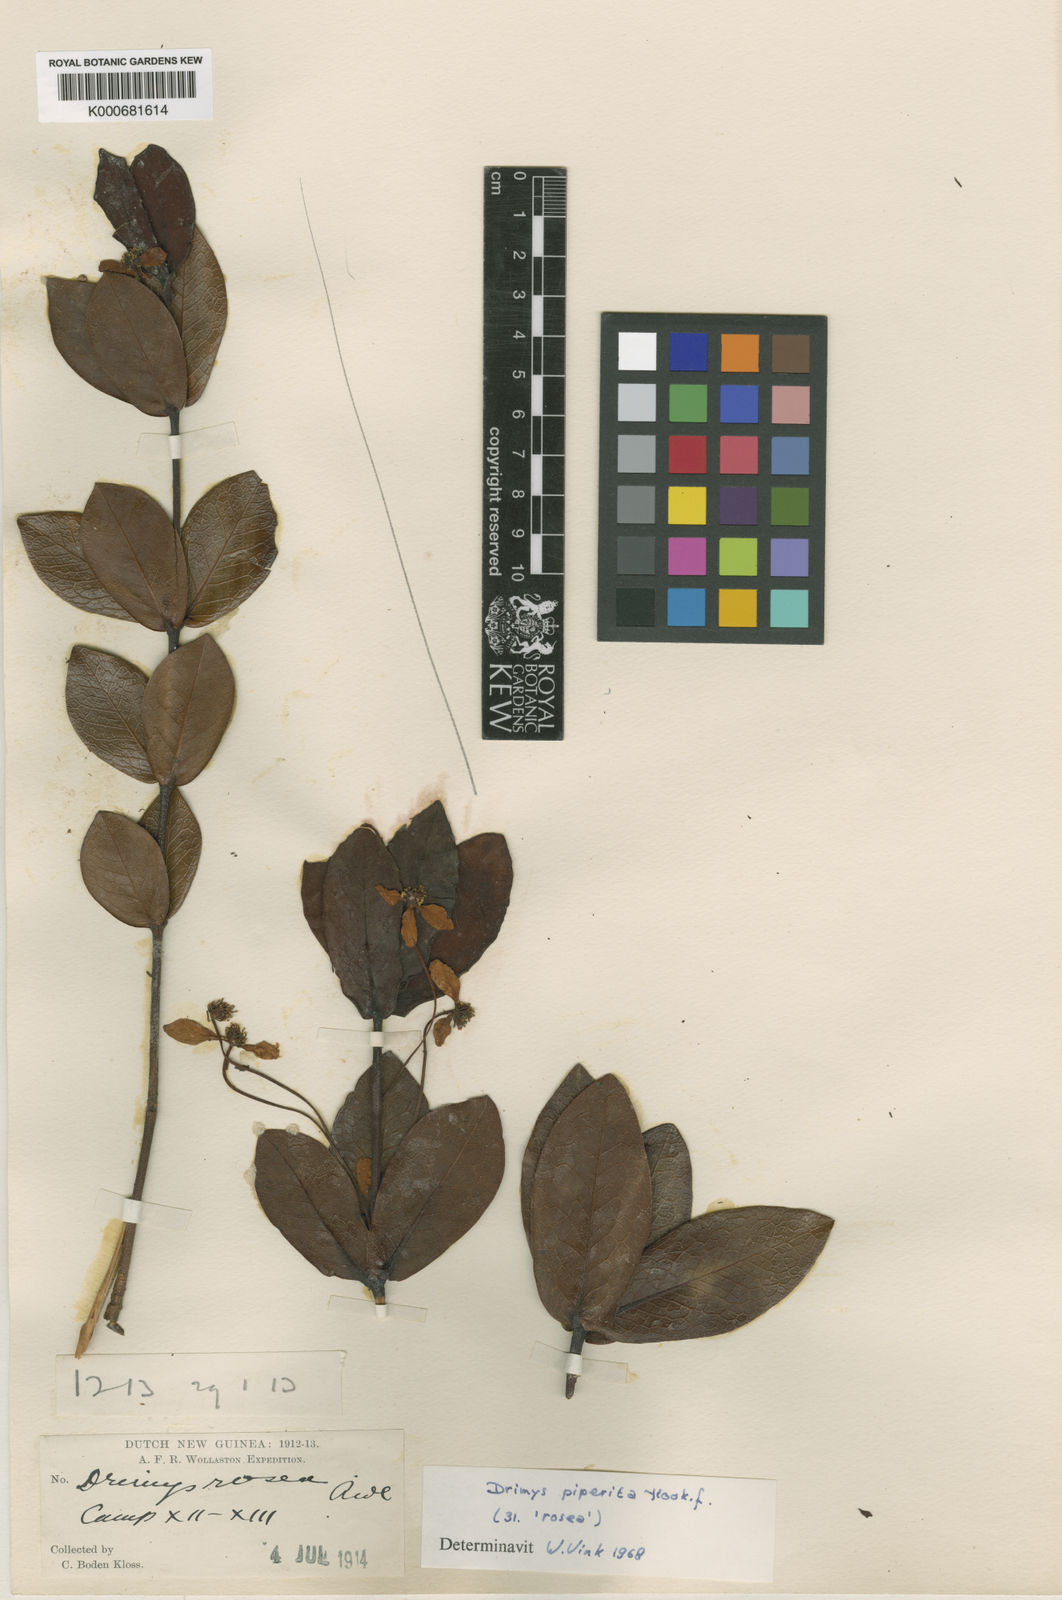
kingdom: Plantae
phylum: Tracheophyta
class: Magnoliopsida
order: Canellales
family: Winteraceae
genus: Drimys
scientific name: Drimys piperita
